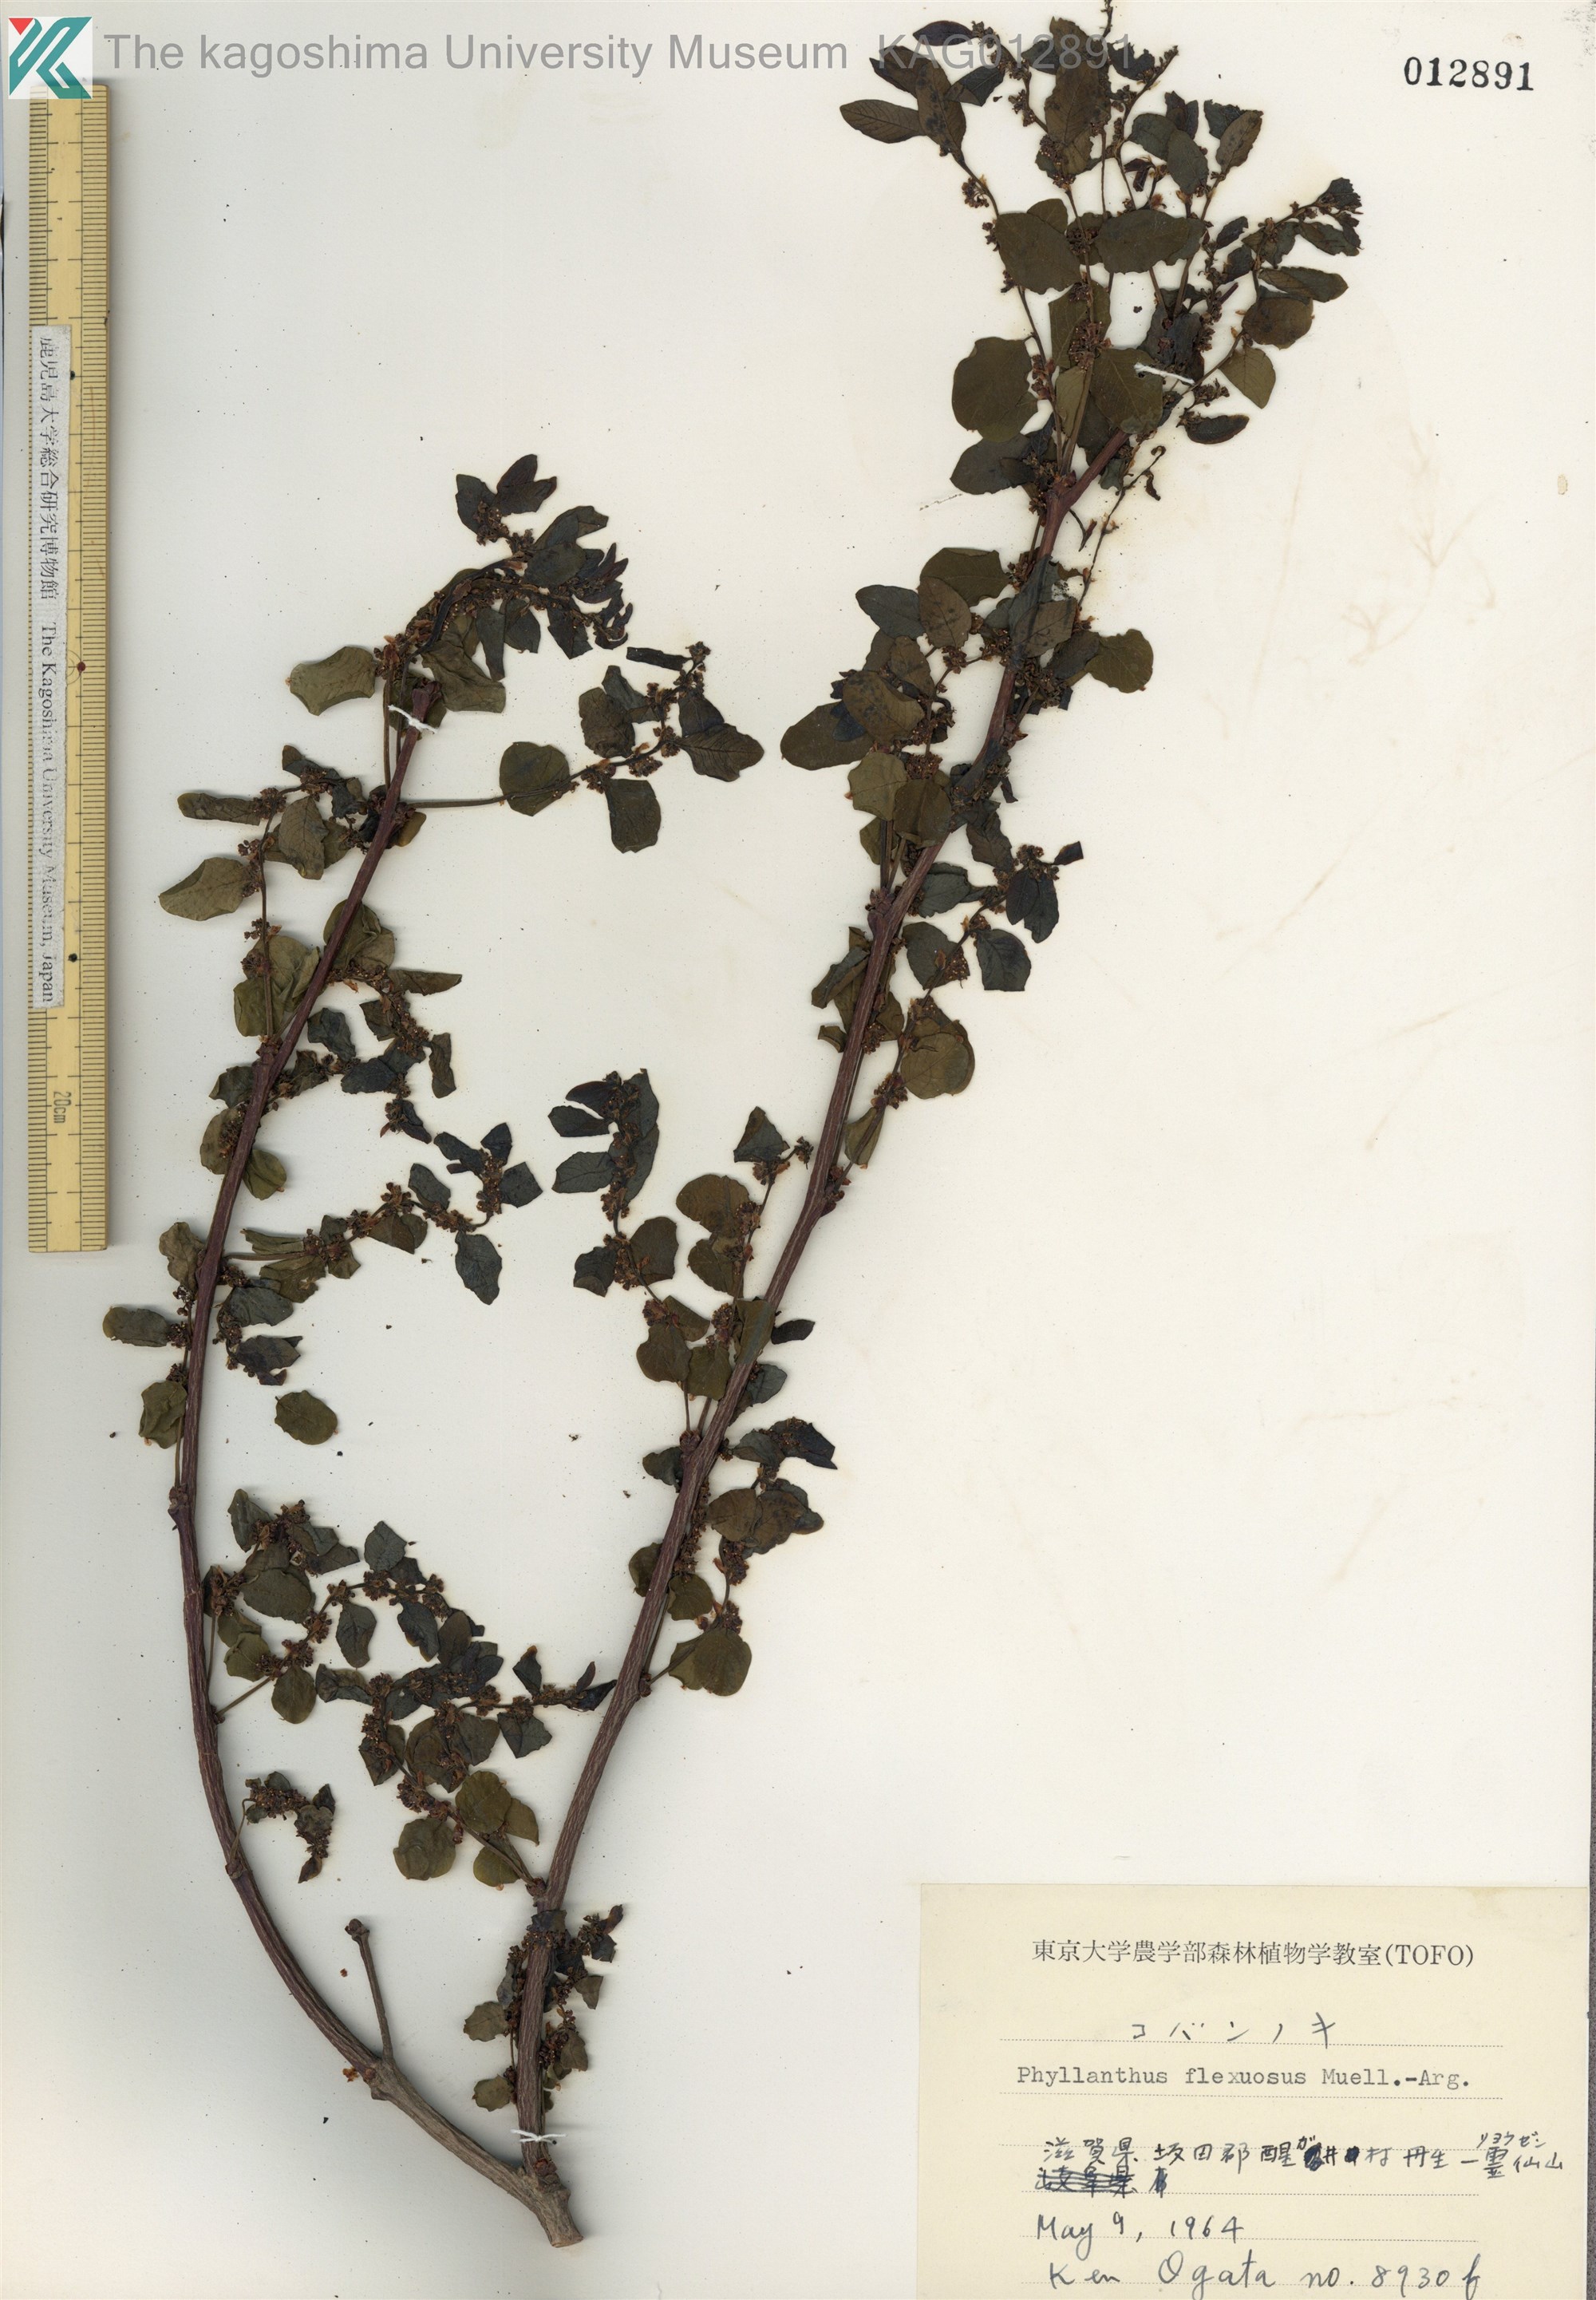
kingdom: Plantae
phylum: Tracheophyta
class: Magnoliopsida
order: Malpighiales
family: Phyllanthaceae
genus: Phyllanthus
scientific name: Phyllanthus flexuosus
